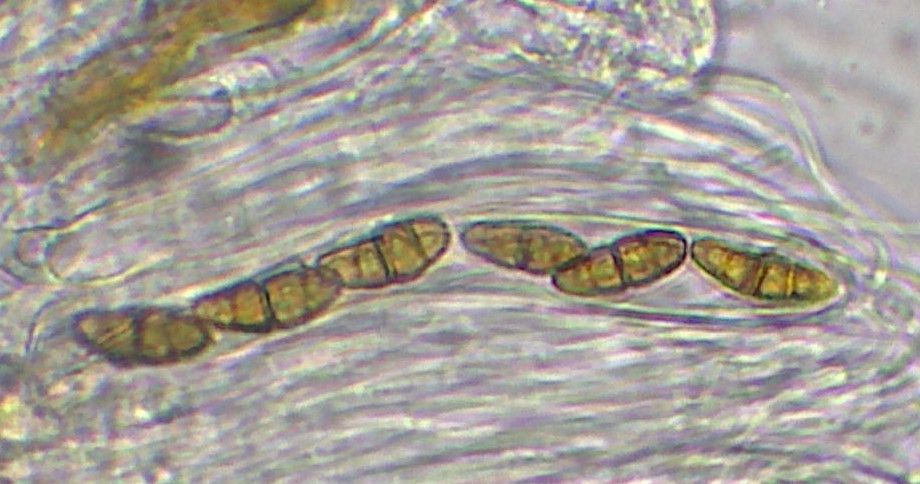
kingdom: Fungi
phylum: Ascomycota
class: Dothideomycetes
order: Pleosporales
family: Coniothyriaceae
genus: Coniothyrium
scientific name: Coniothyrium fuckelii
